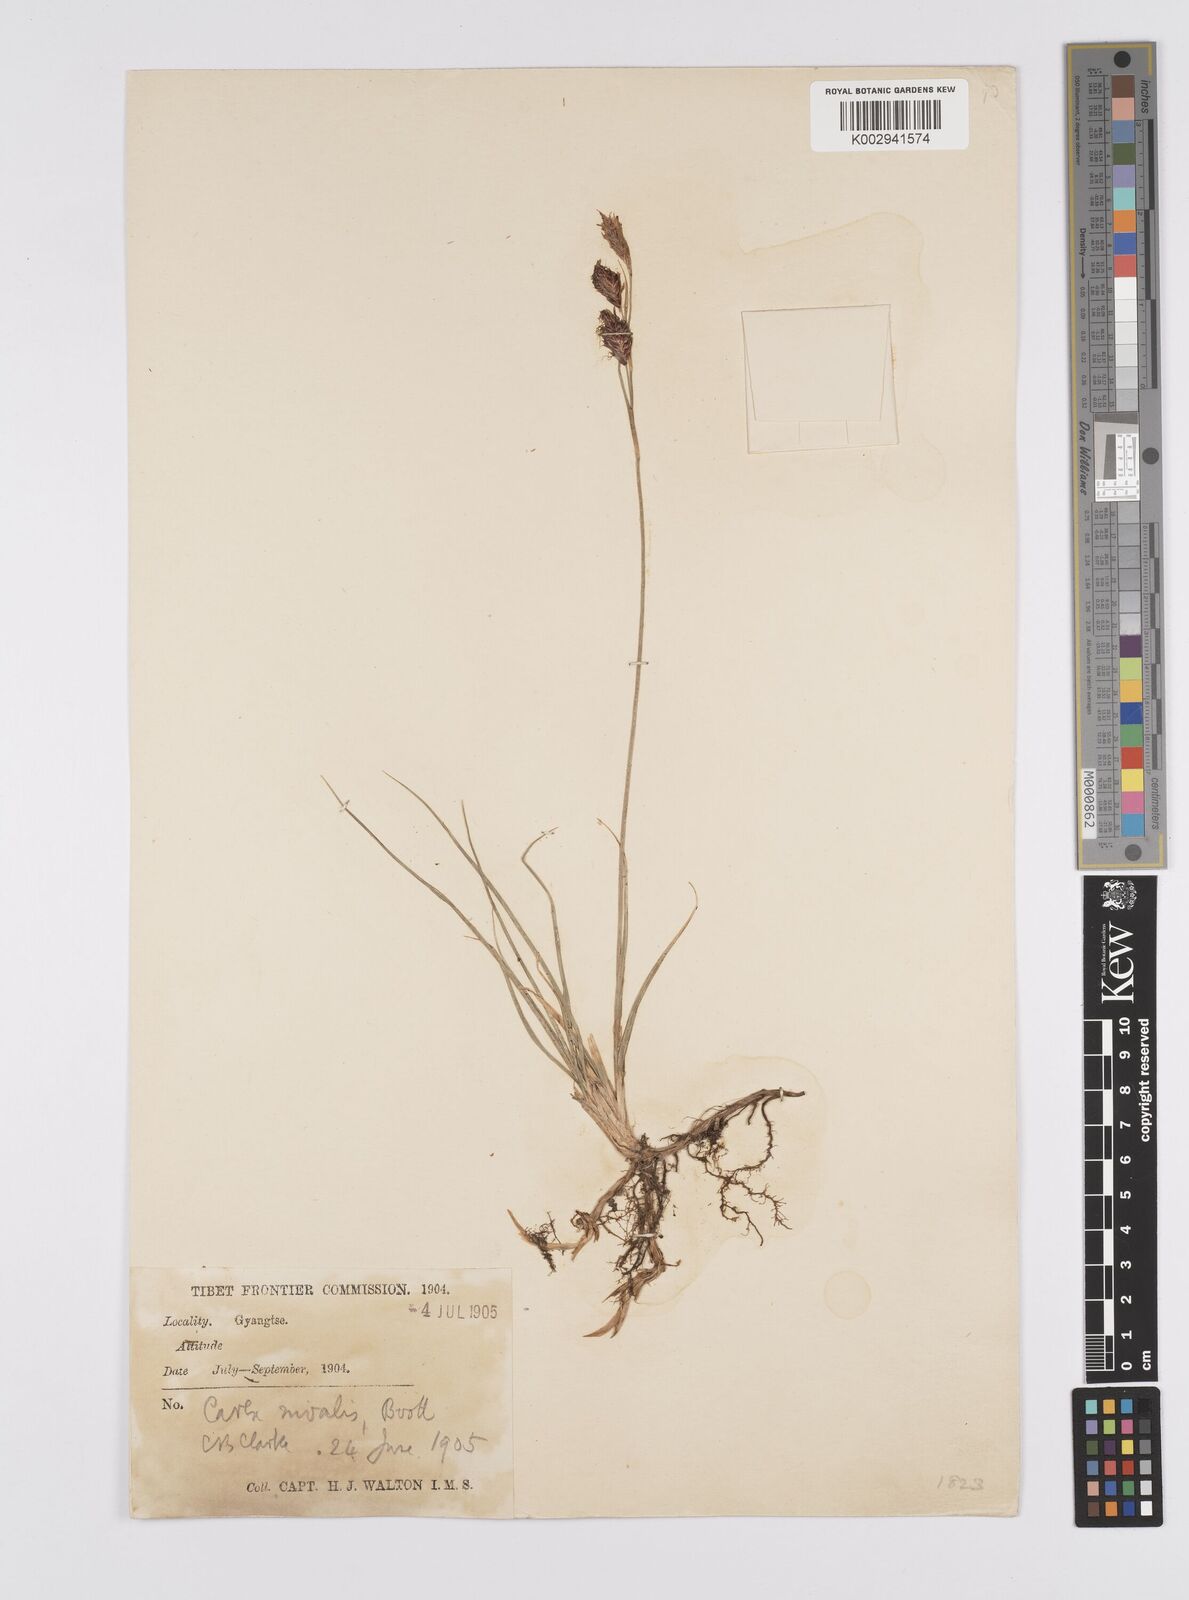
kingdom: Plantae
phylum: Tracheophyta
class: Liliopsida
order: Poales
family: Cyperaceae
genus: Carex
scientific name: Carex nivalis
